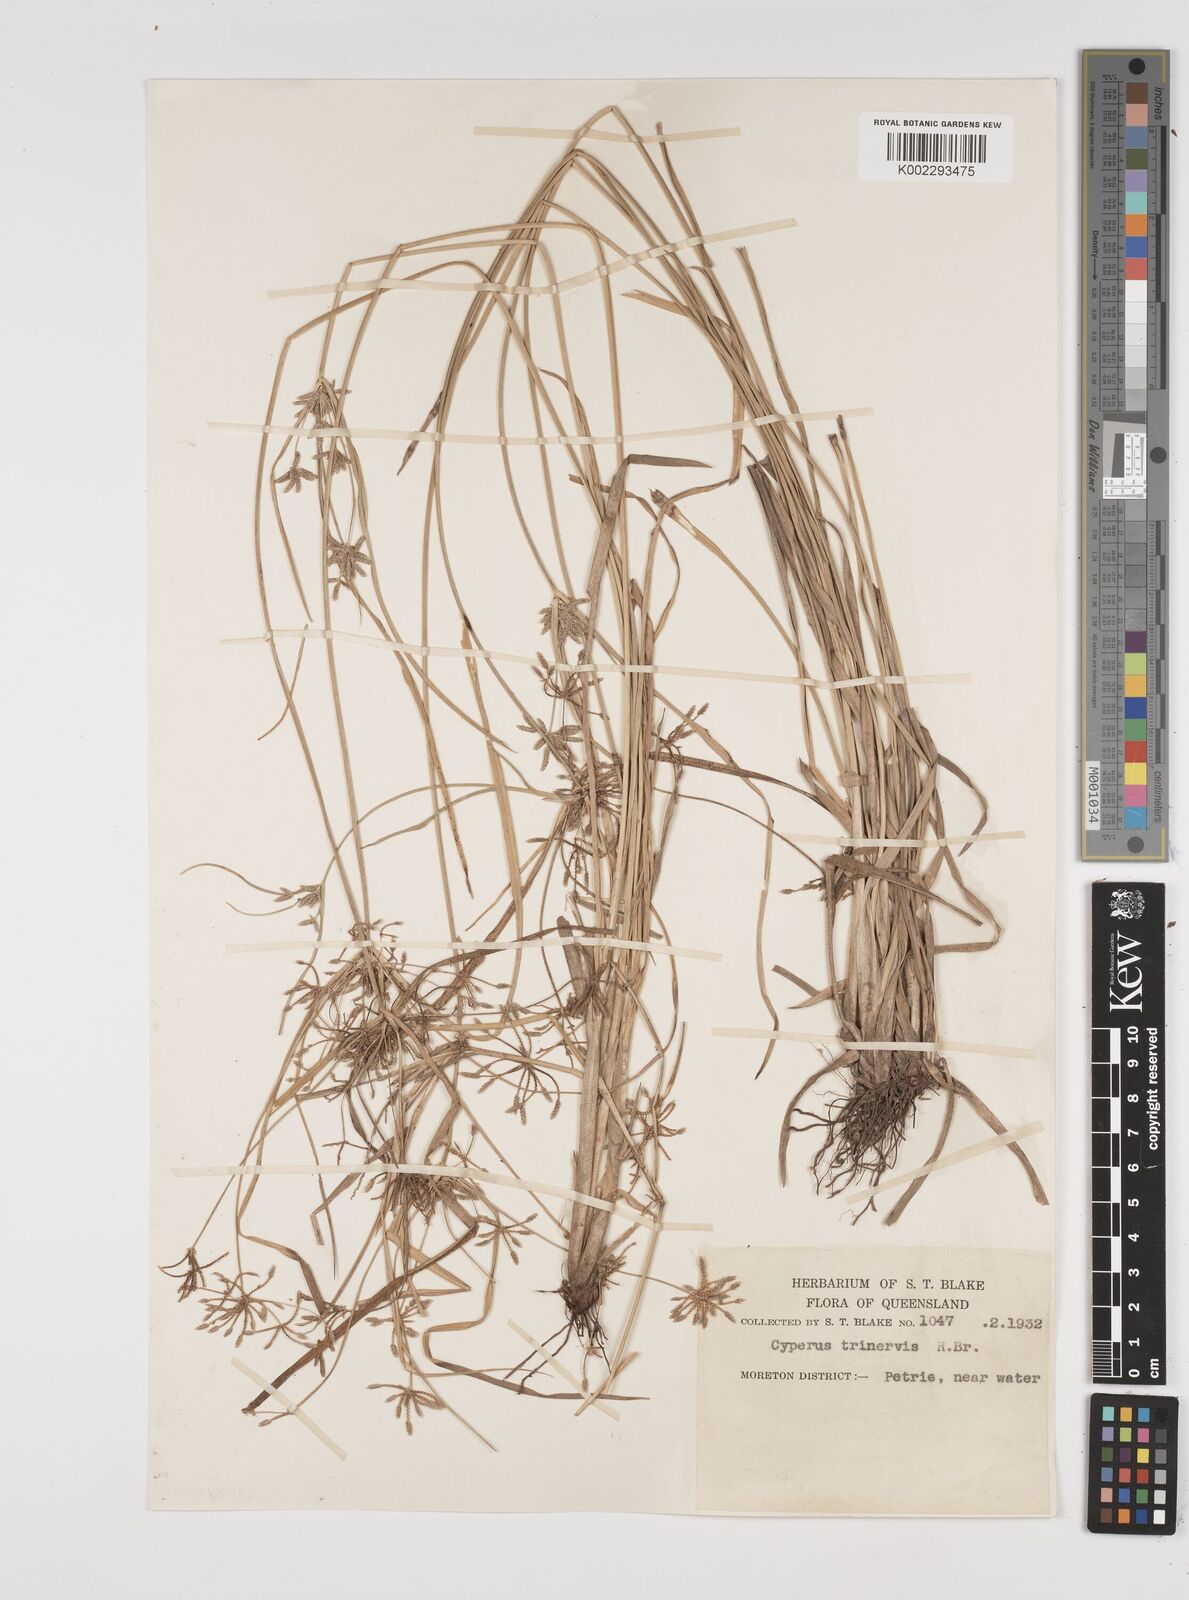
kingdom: Plantae
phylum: Tracheophyta
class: Liliopsida
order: Poales
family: Cyperaceae
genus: Cyperus
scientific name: Cyperus trinervis
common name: Australian flatsedge
